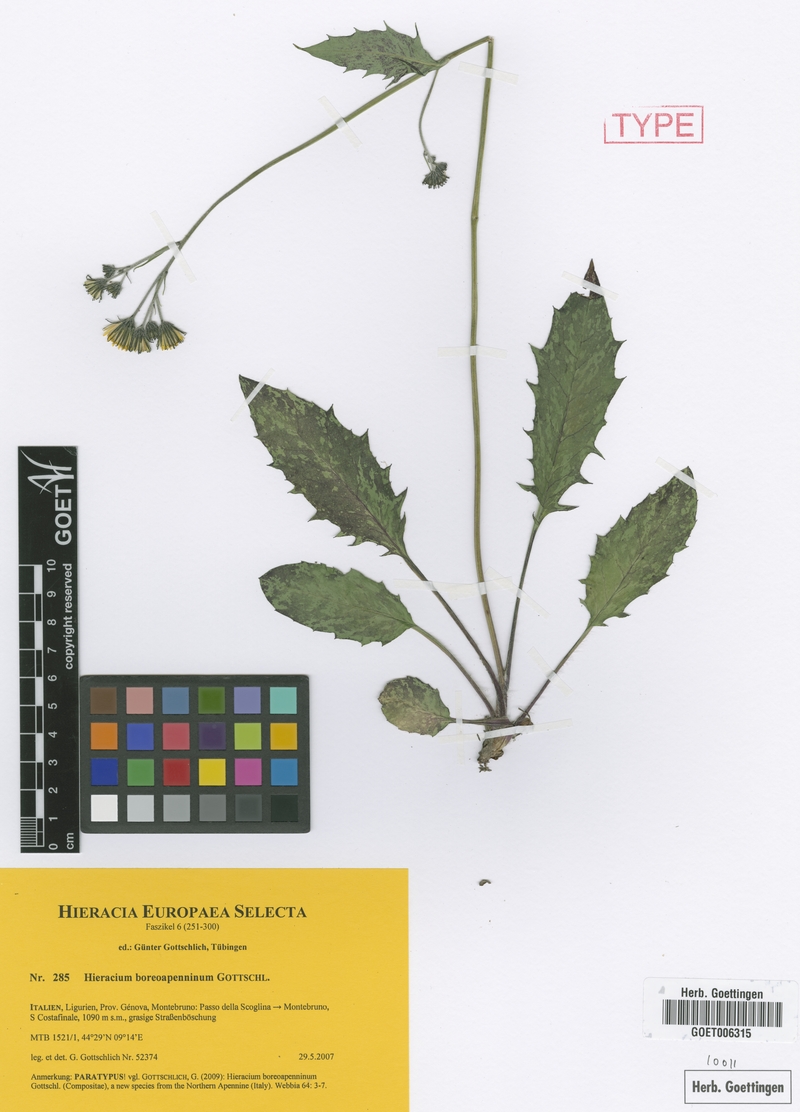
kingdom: Plantae
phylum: Tracheophyta
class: Magnoliopsida
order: Asterales
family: Asteraceae
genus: Hieracium
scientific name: Hieracium boreoapenninum
